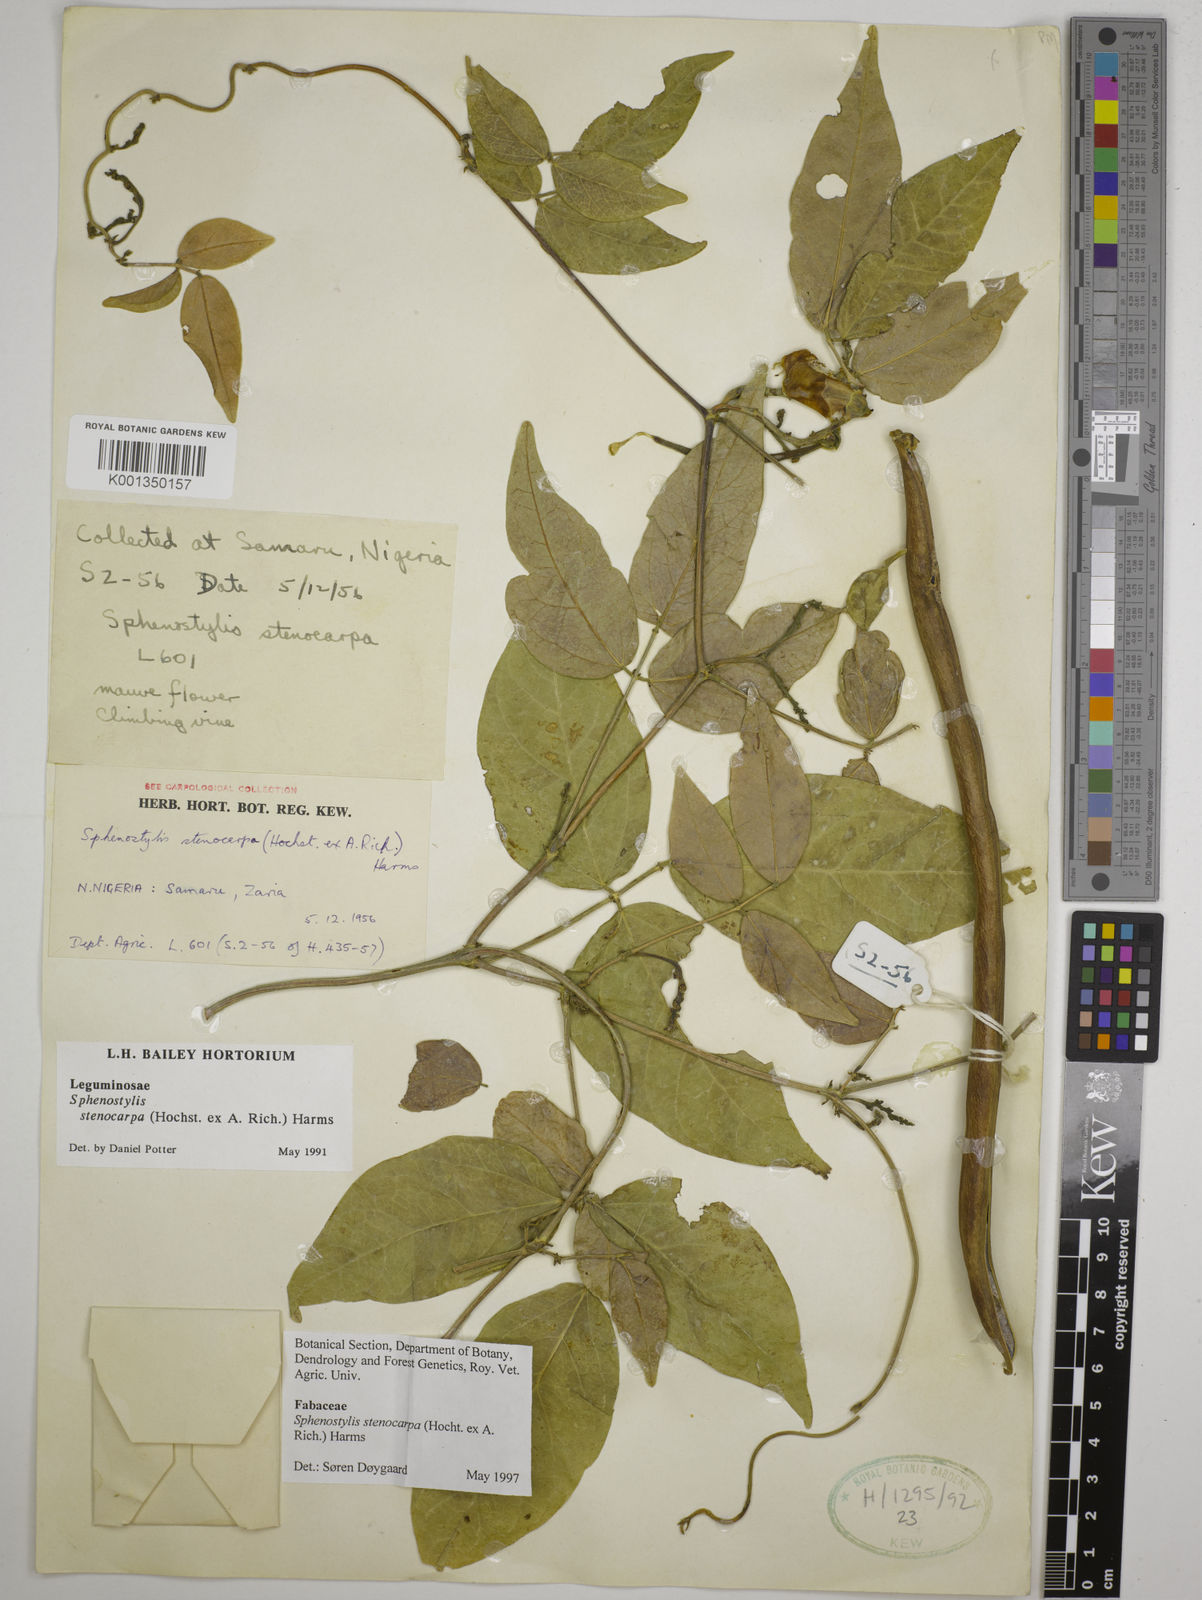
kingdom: Plantae
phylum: Tracheophyta
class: Magnoliopsida
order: Fabales
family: Fabaceae
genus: Sphenostylis
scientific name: Sphenostylis stenocarpa
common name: Yam-pea
